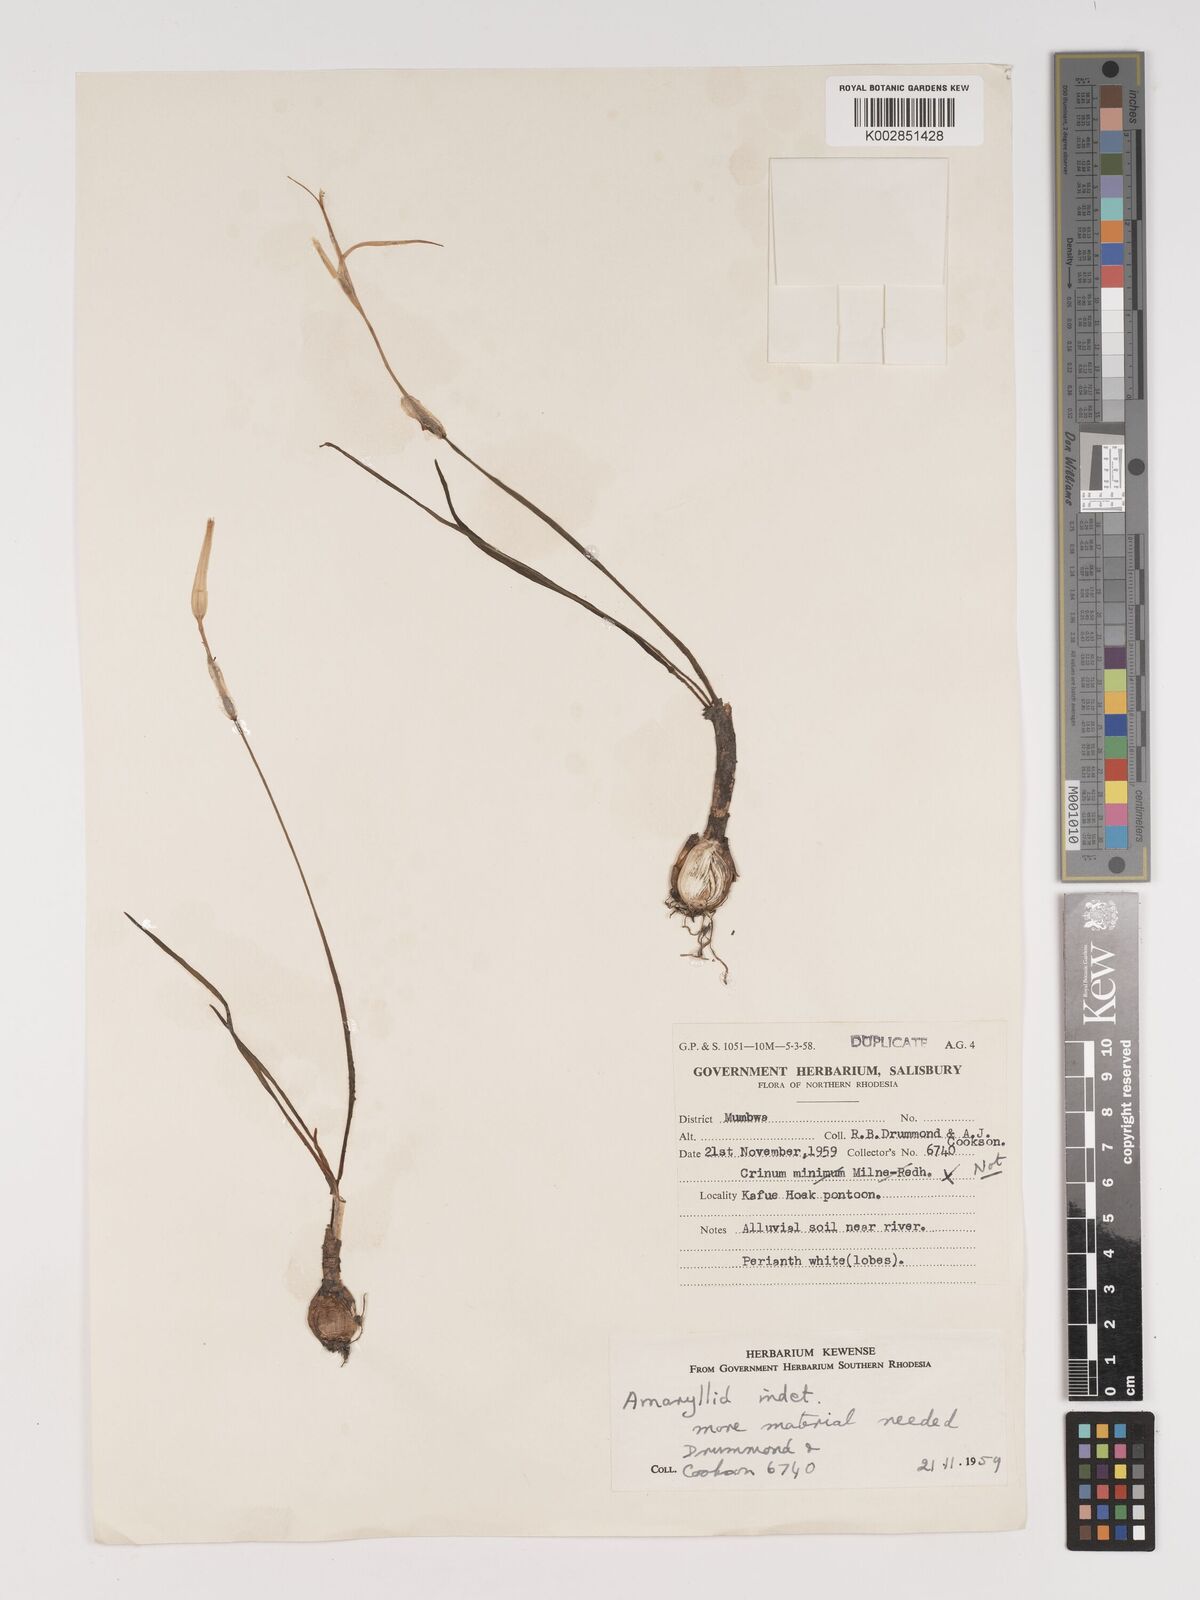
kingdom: Plantae
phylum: Tracheophyta
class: Liliopsida
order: Asparagales
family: Amaryllidaceae
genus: Crinum
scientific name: Crinum walteri
